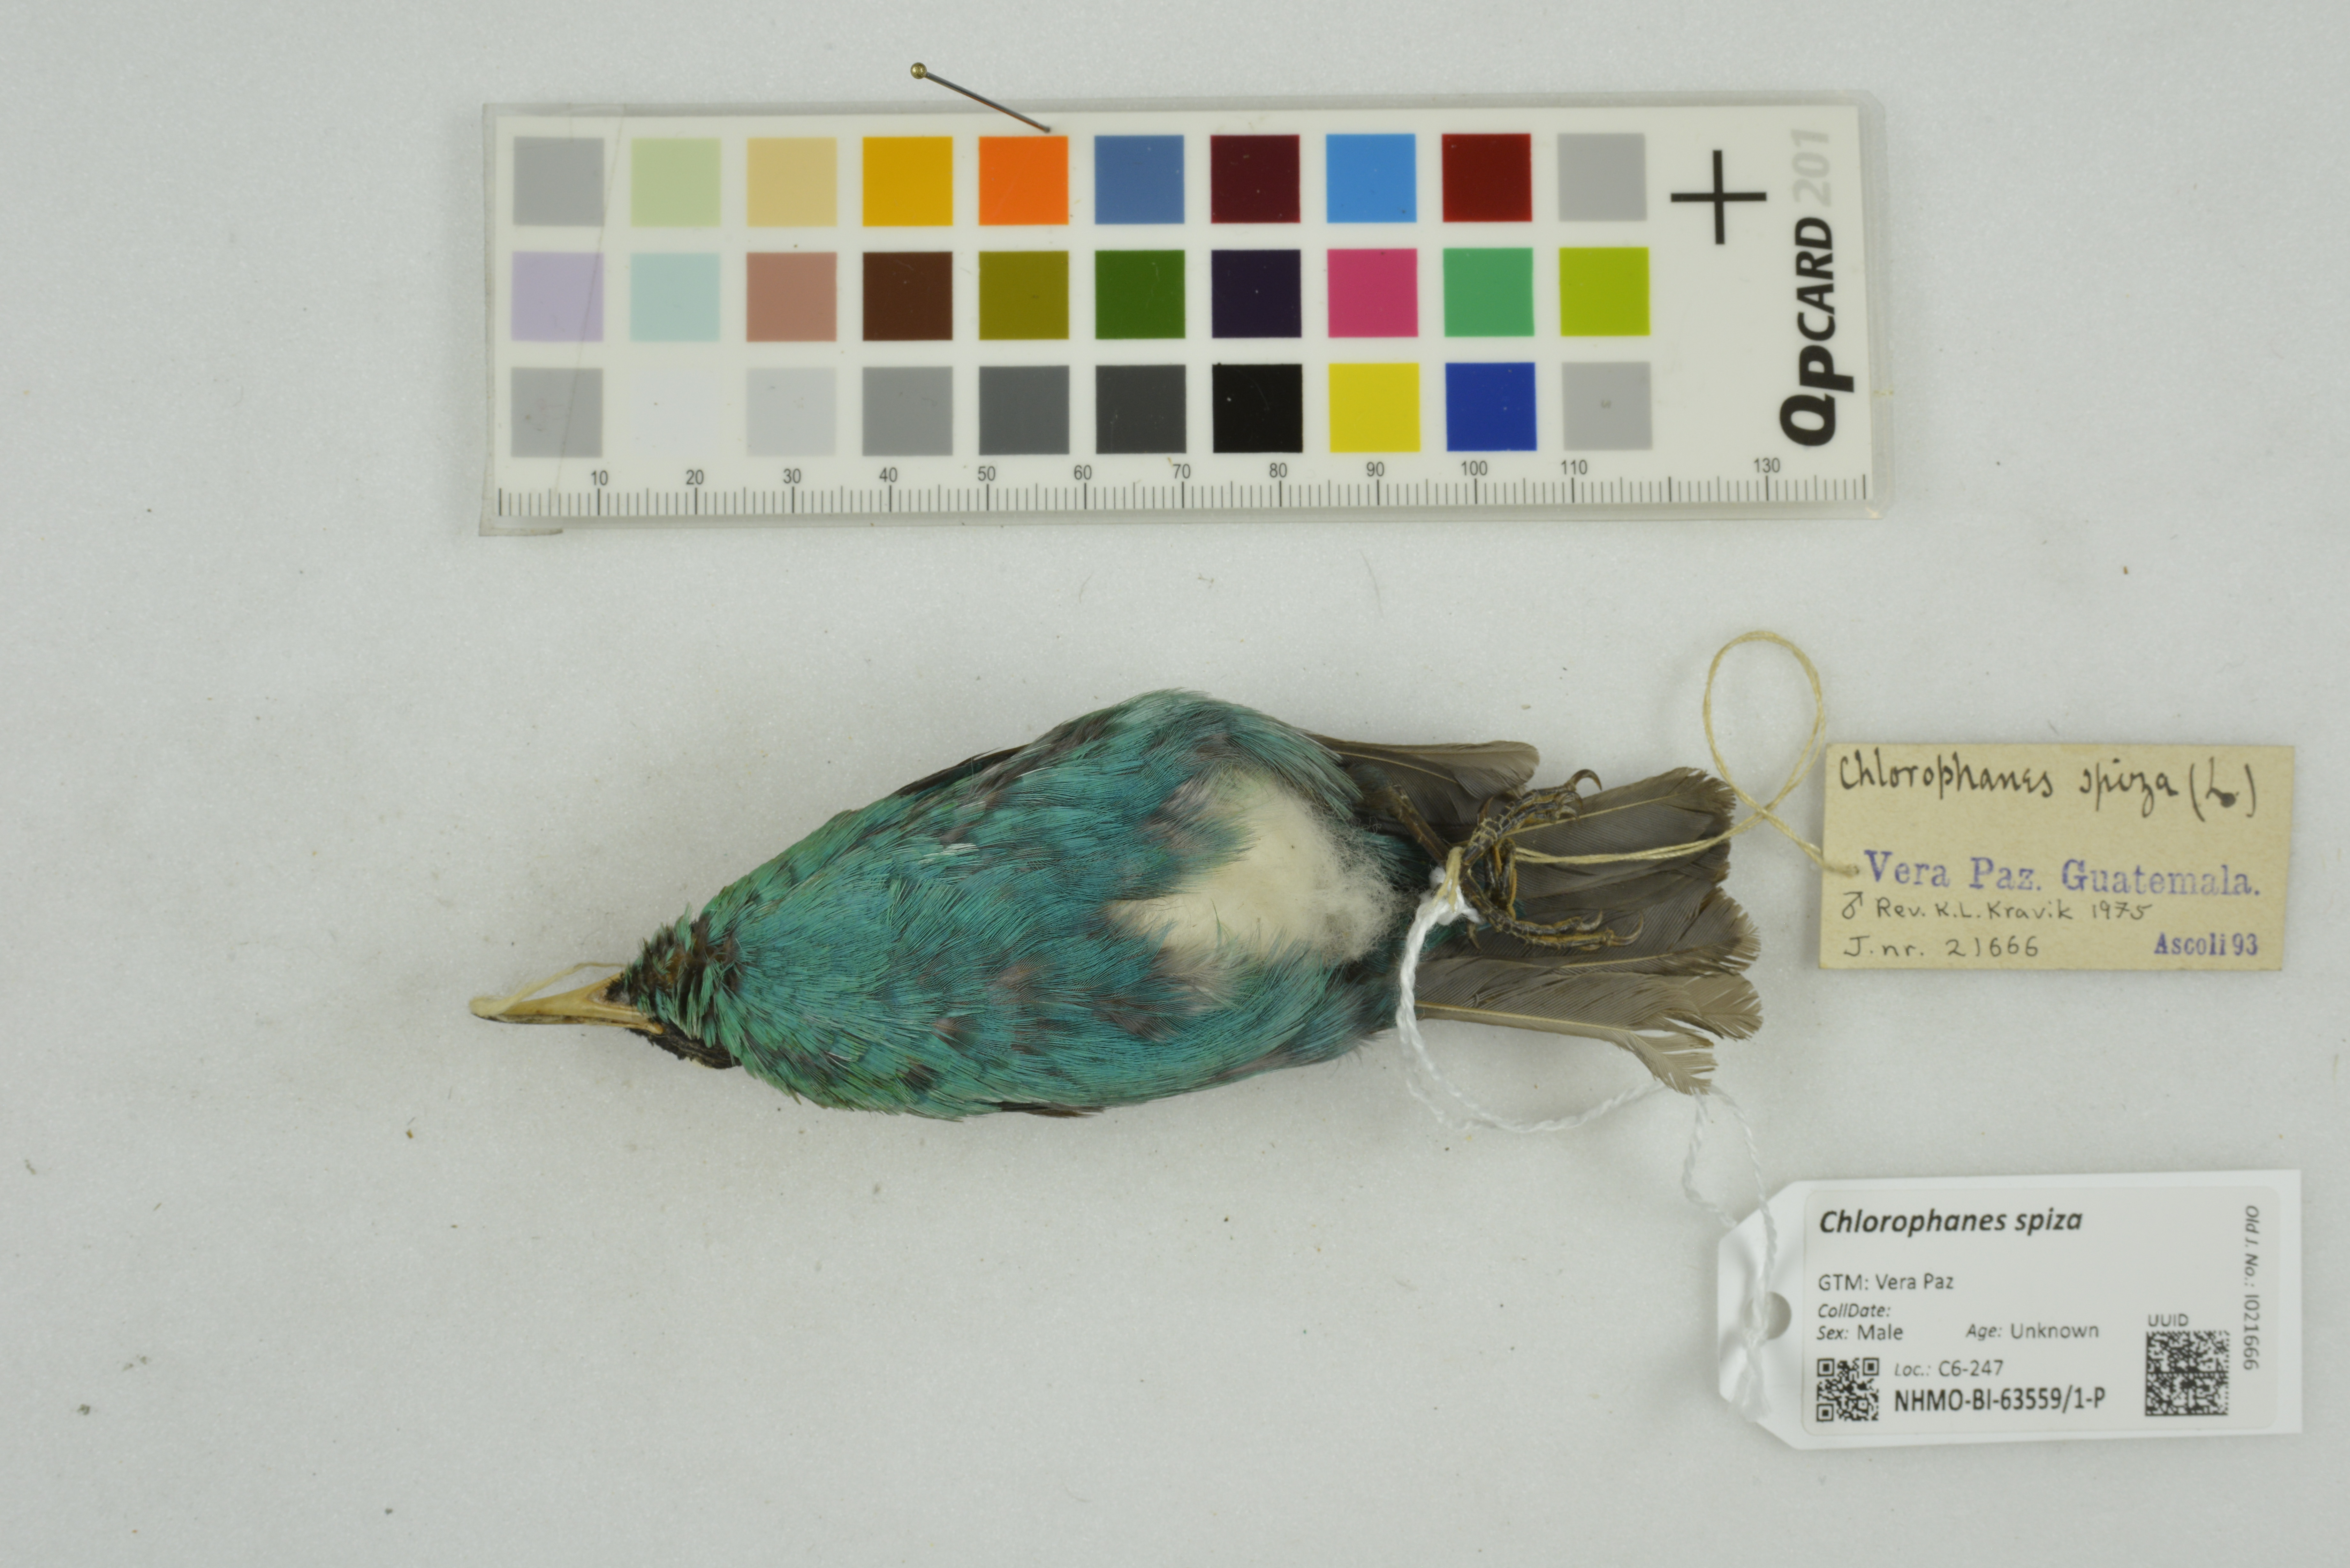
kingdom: Animalia
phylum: Chordata
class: Aves
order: Passeriformes
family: Thraupidae
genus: Chlorophanes
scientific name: Chlorophanes spiza
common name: Green honeycreeper
